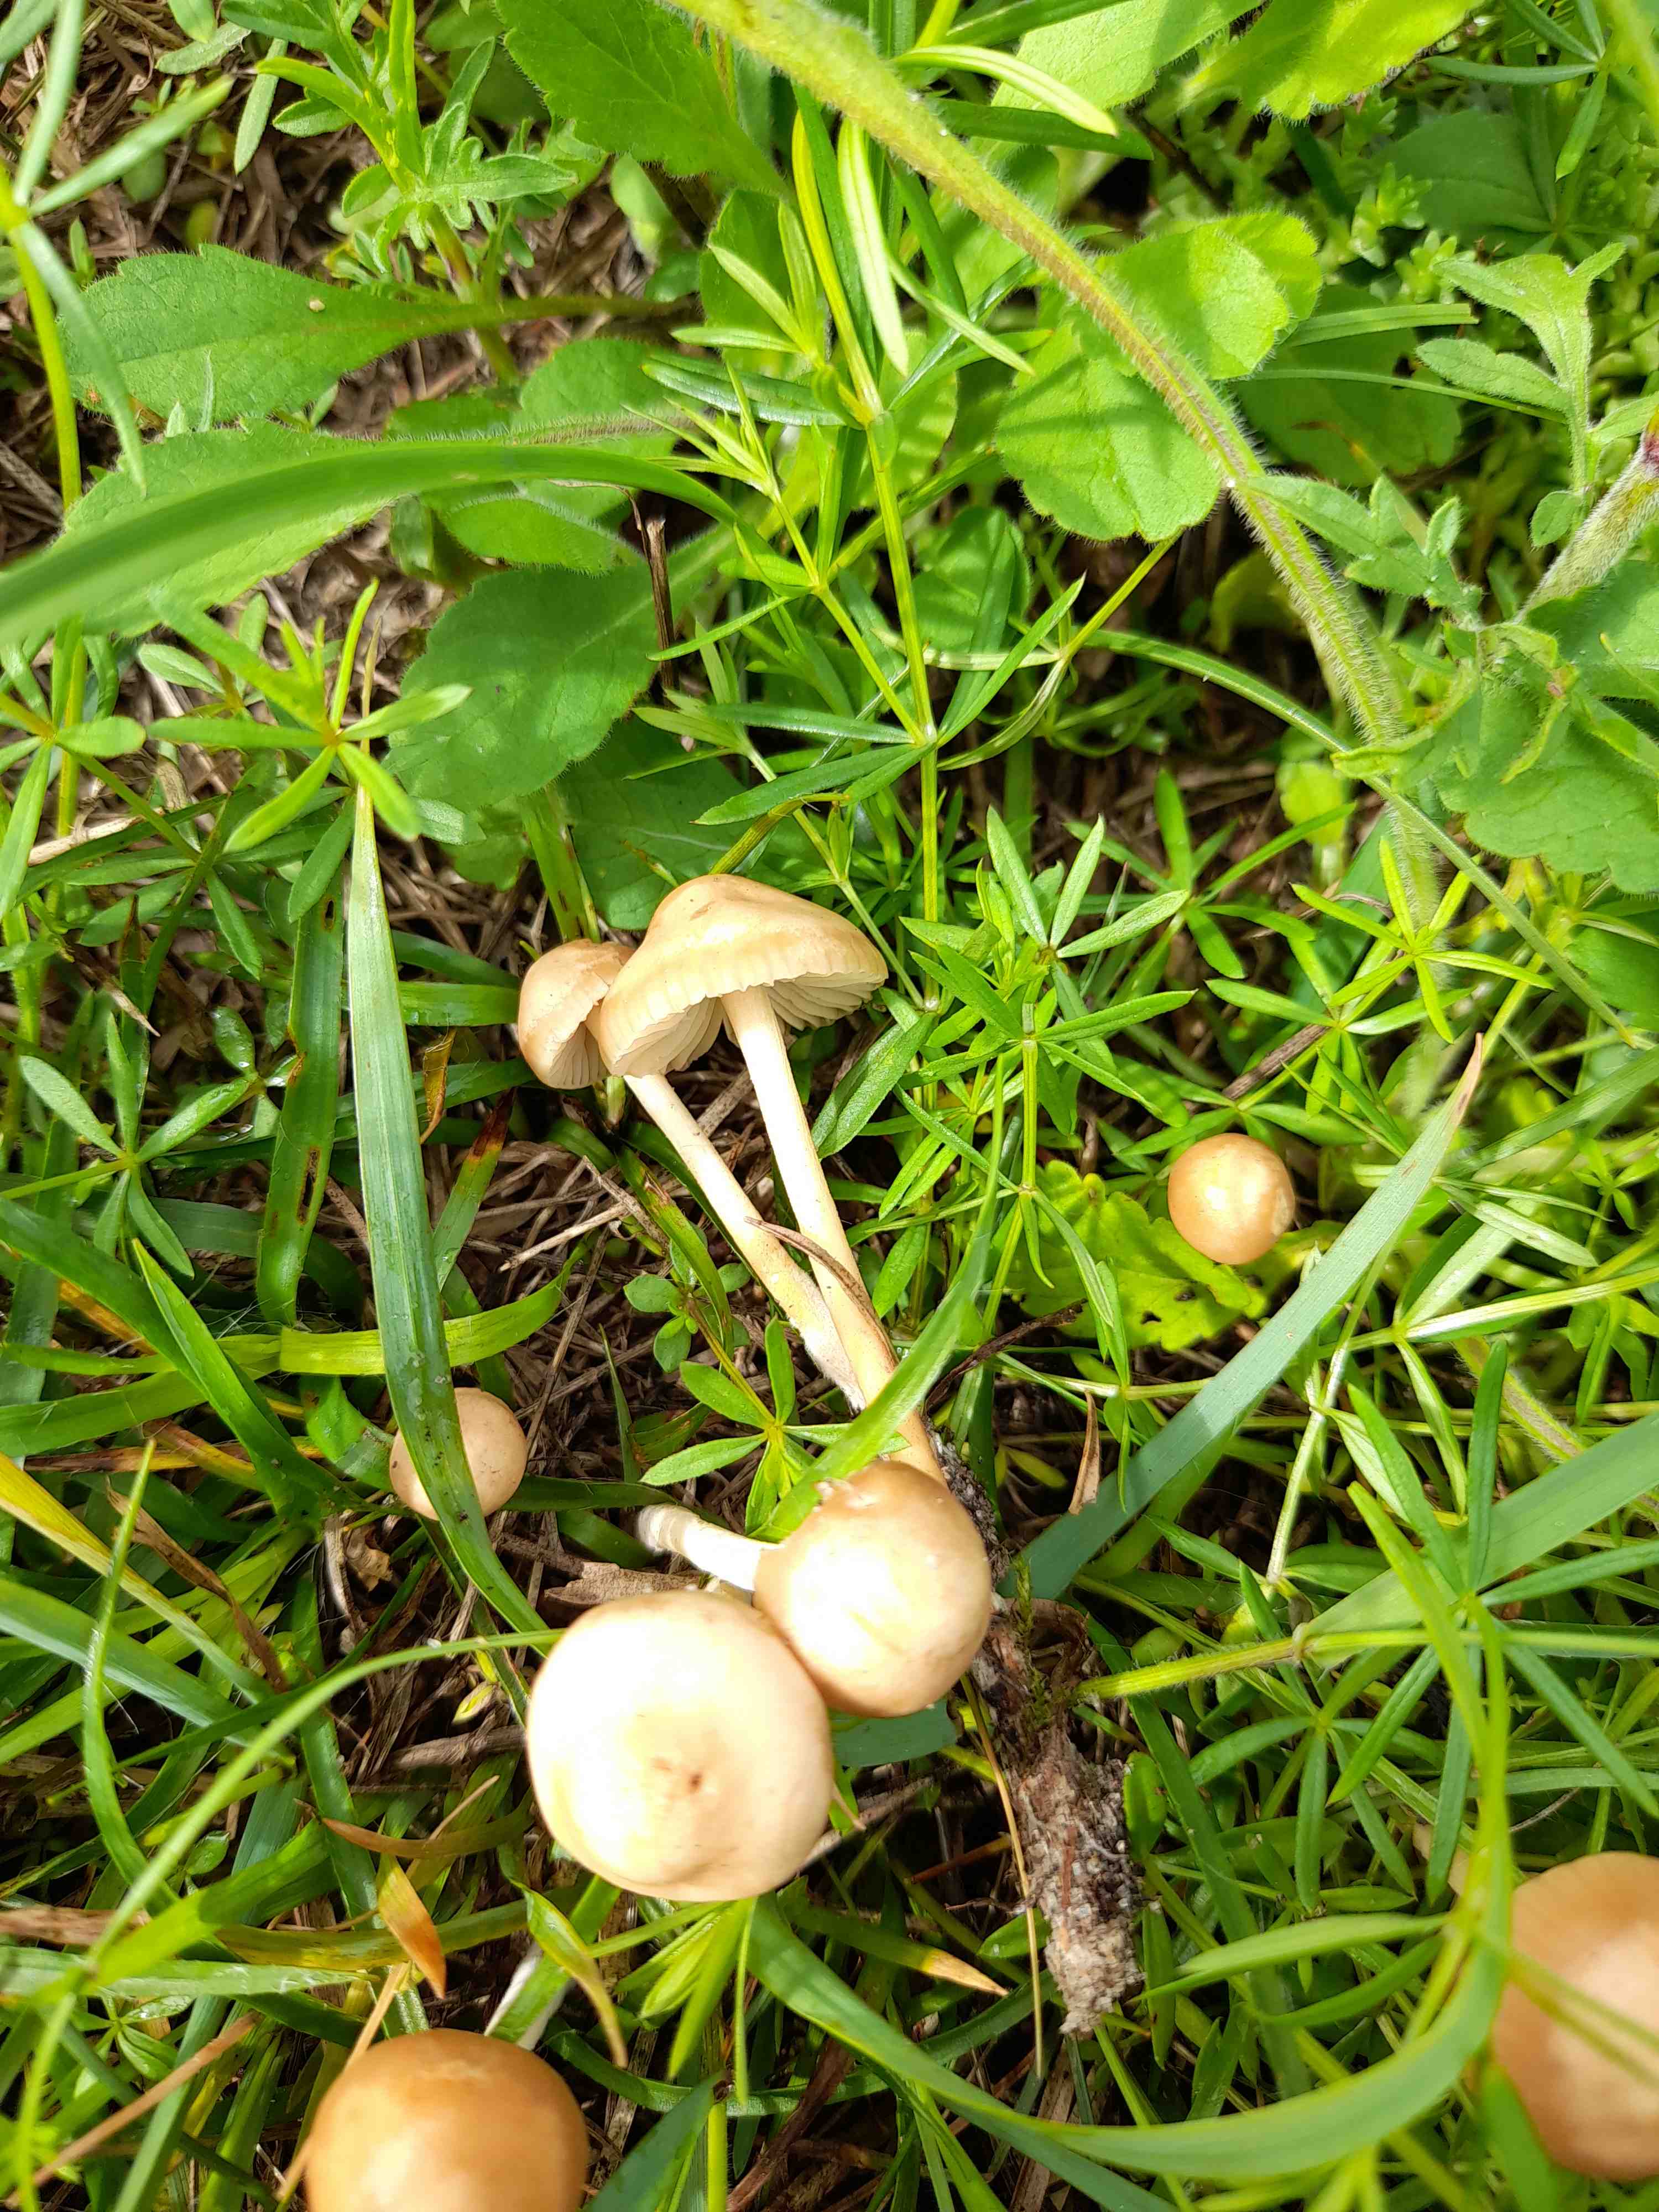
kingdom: Fungi
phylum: Basidiomycota
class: Agaricomycetes
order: Agaricales
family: Marasmiaceae
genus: Marasmius
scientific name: Marasmius oreades
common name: elledans-bruskhat
